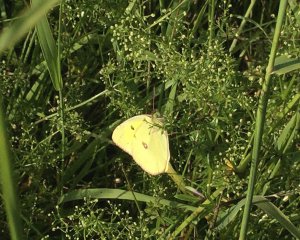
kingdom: Animalia
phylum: Arthropoda
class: Insecta
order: Lepidoptera
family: Pieridae
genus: Colias
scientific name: Colias philodice
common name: Clouded Sulphur
